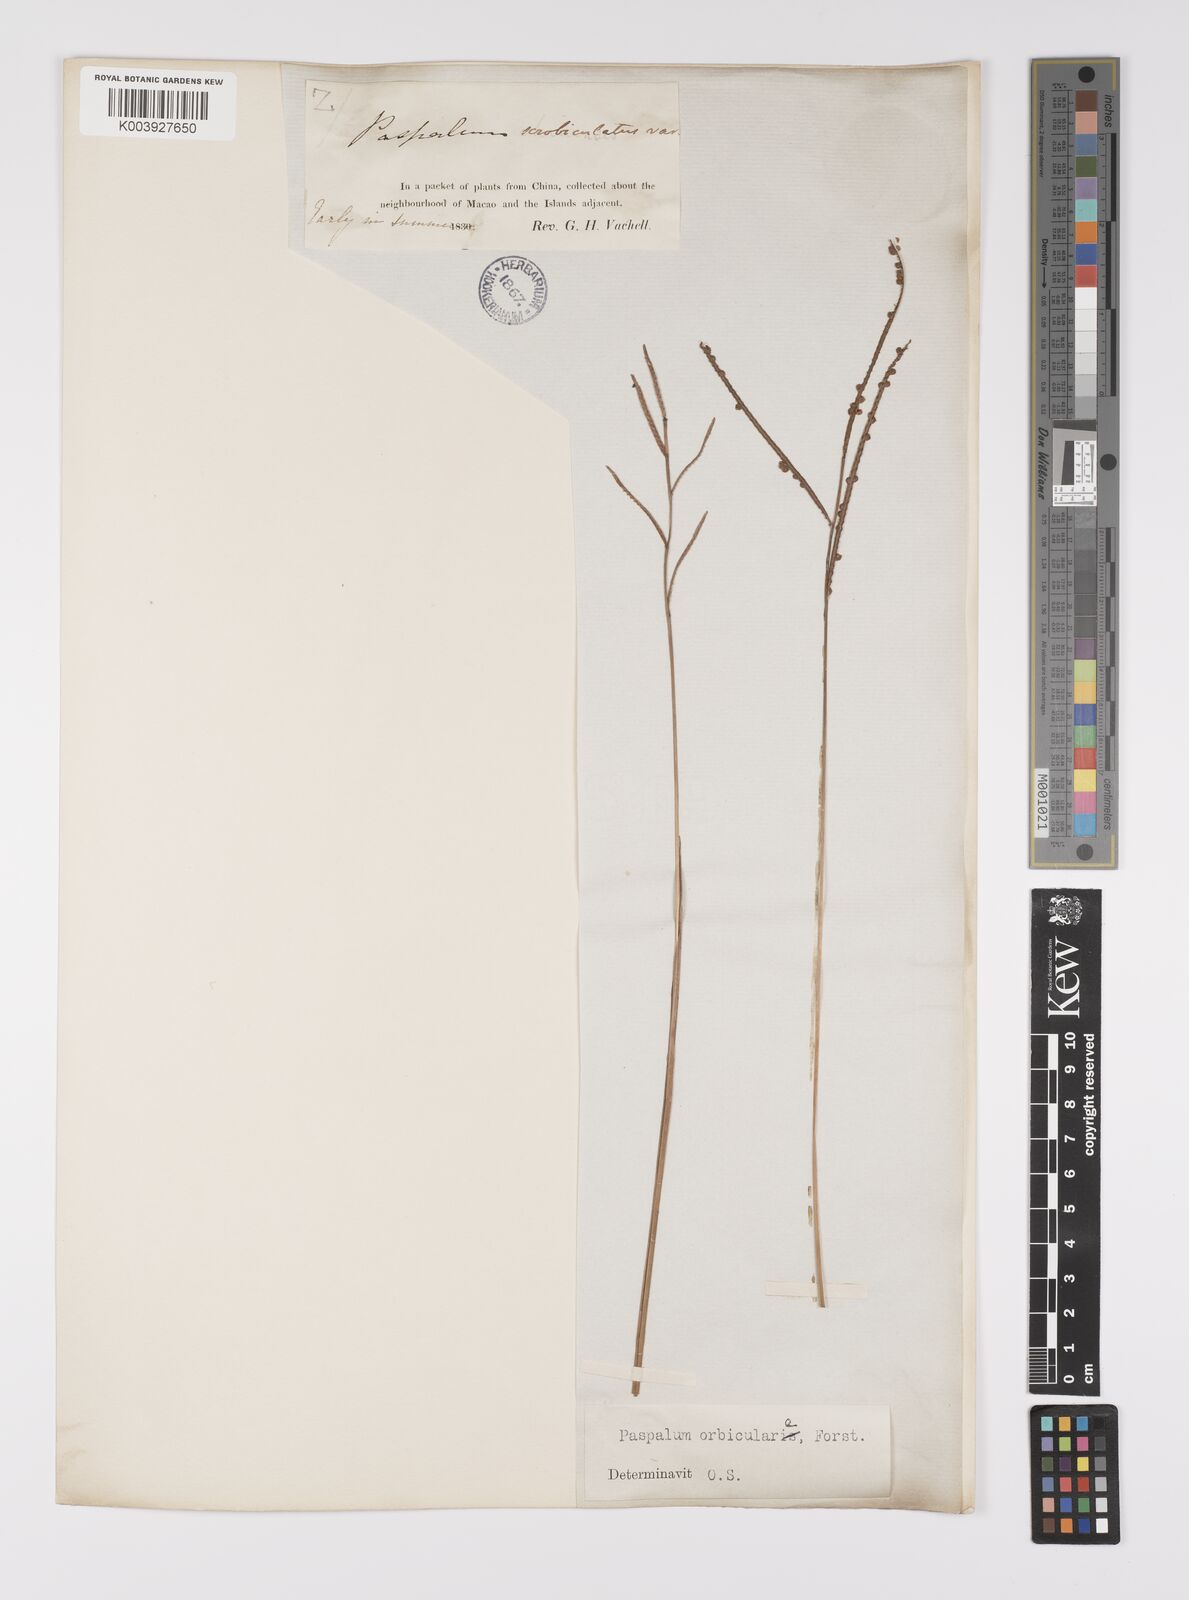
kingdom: Plantae
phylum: Tracheophyta
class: Liliopsida
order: Poales
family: Poaceae
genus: Paspalum
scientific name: Paspalum scrobiculatum
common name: Kodo millet
